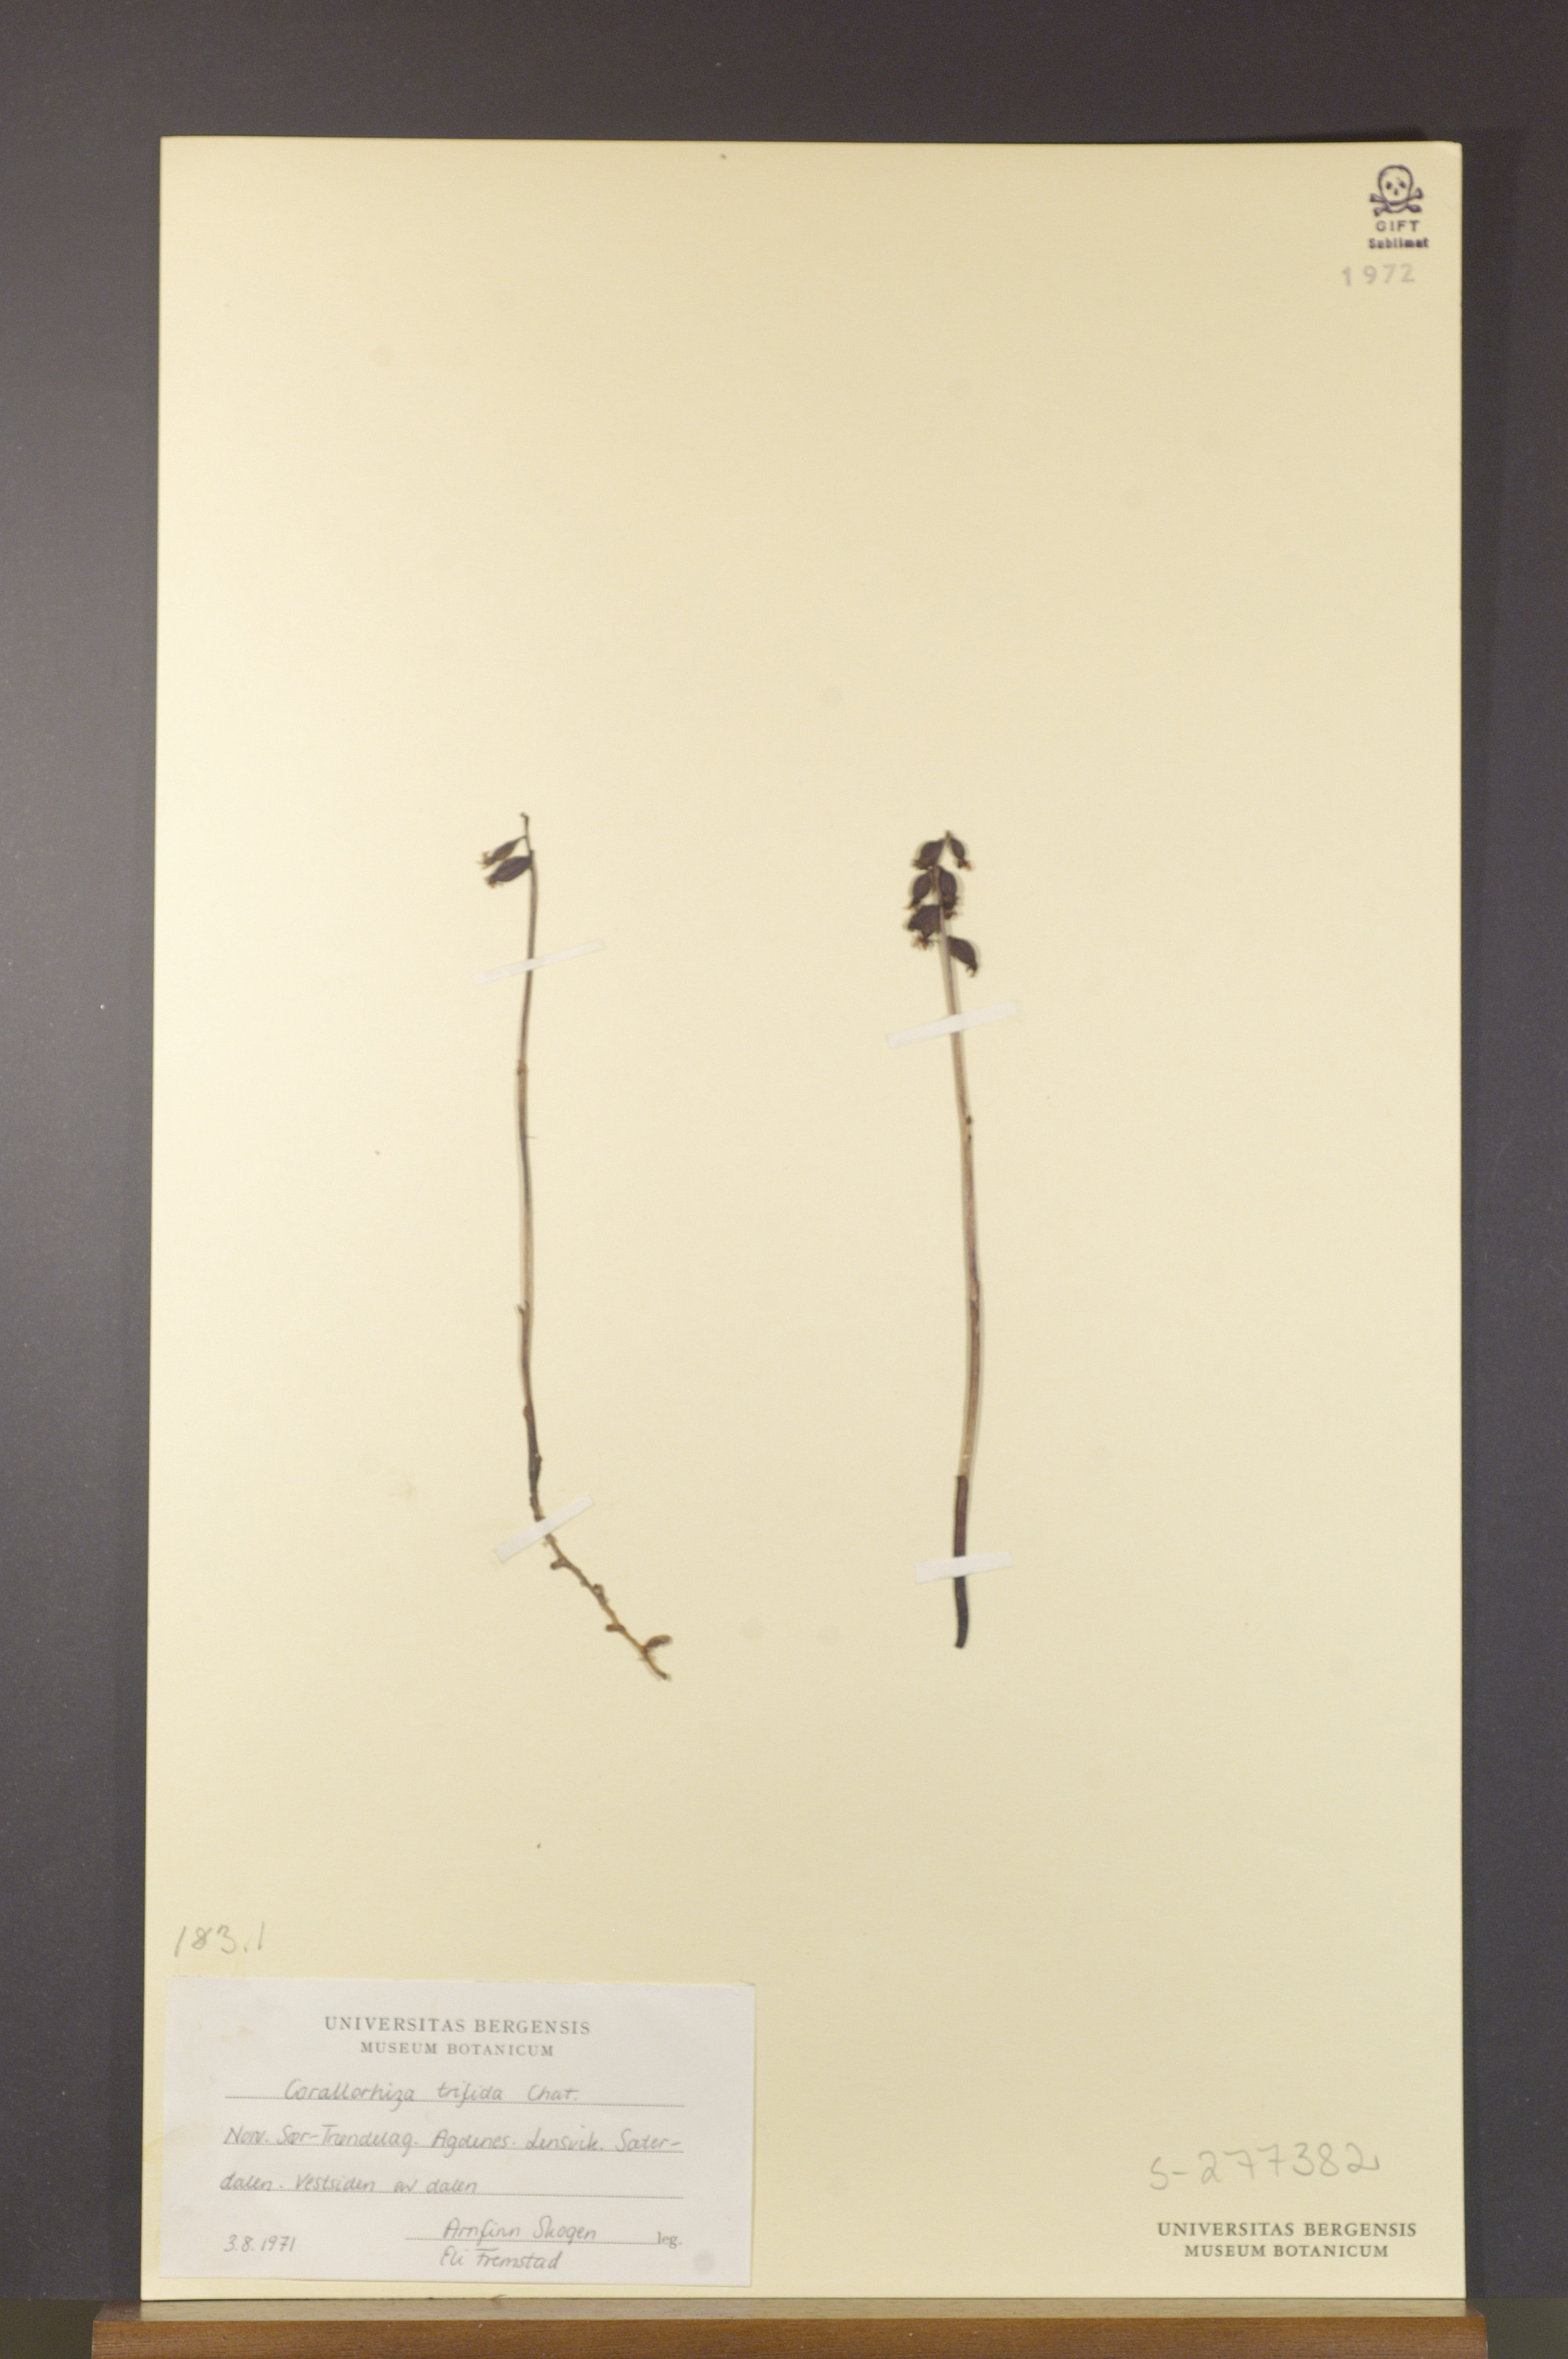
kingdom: Plantae
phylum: Tracheophyta
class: Liliopsida
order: Asparagales
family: Orchidaceae
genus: Corallorhiza
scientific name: Corallorhiza trifida
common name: Yellow coralroot
